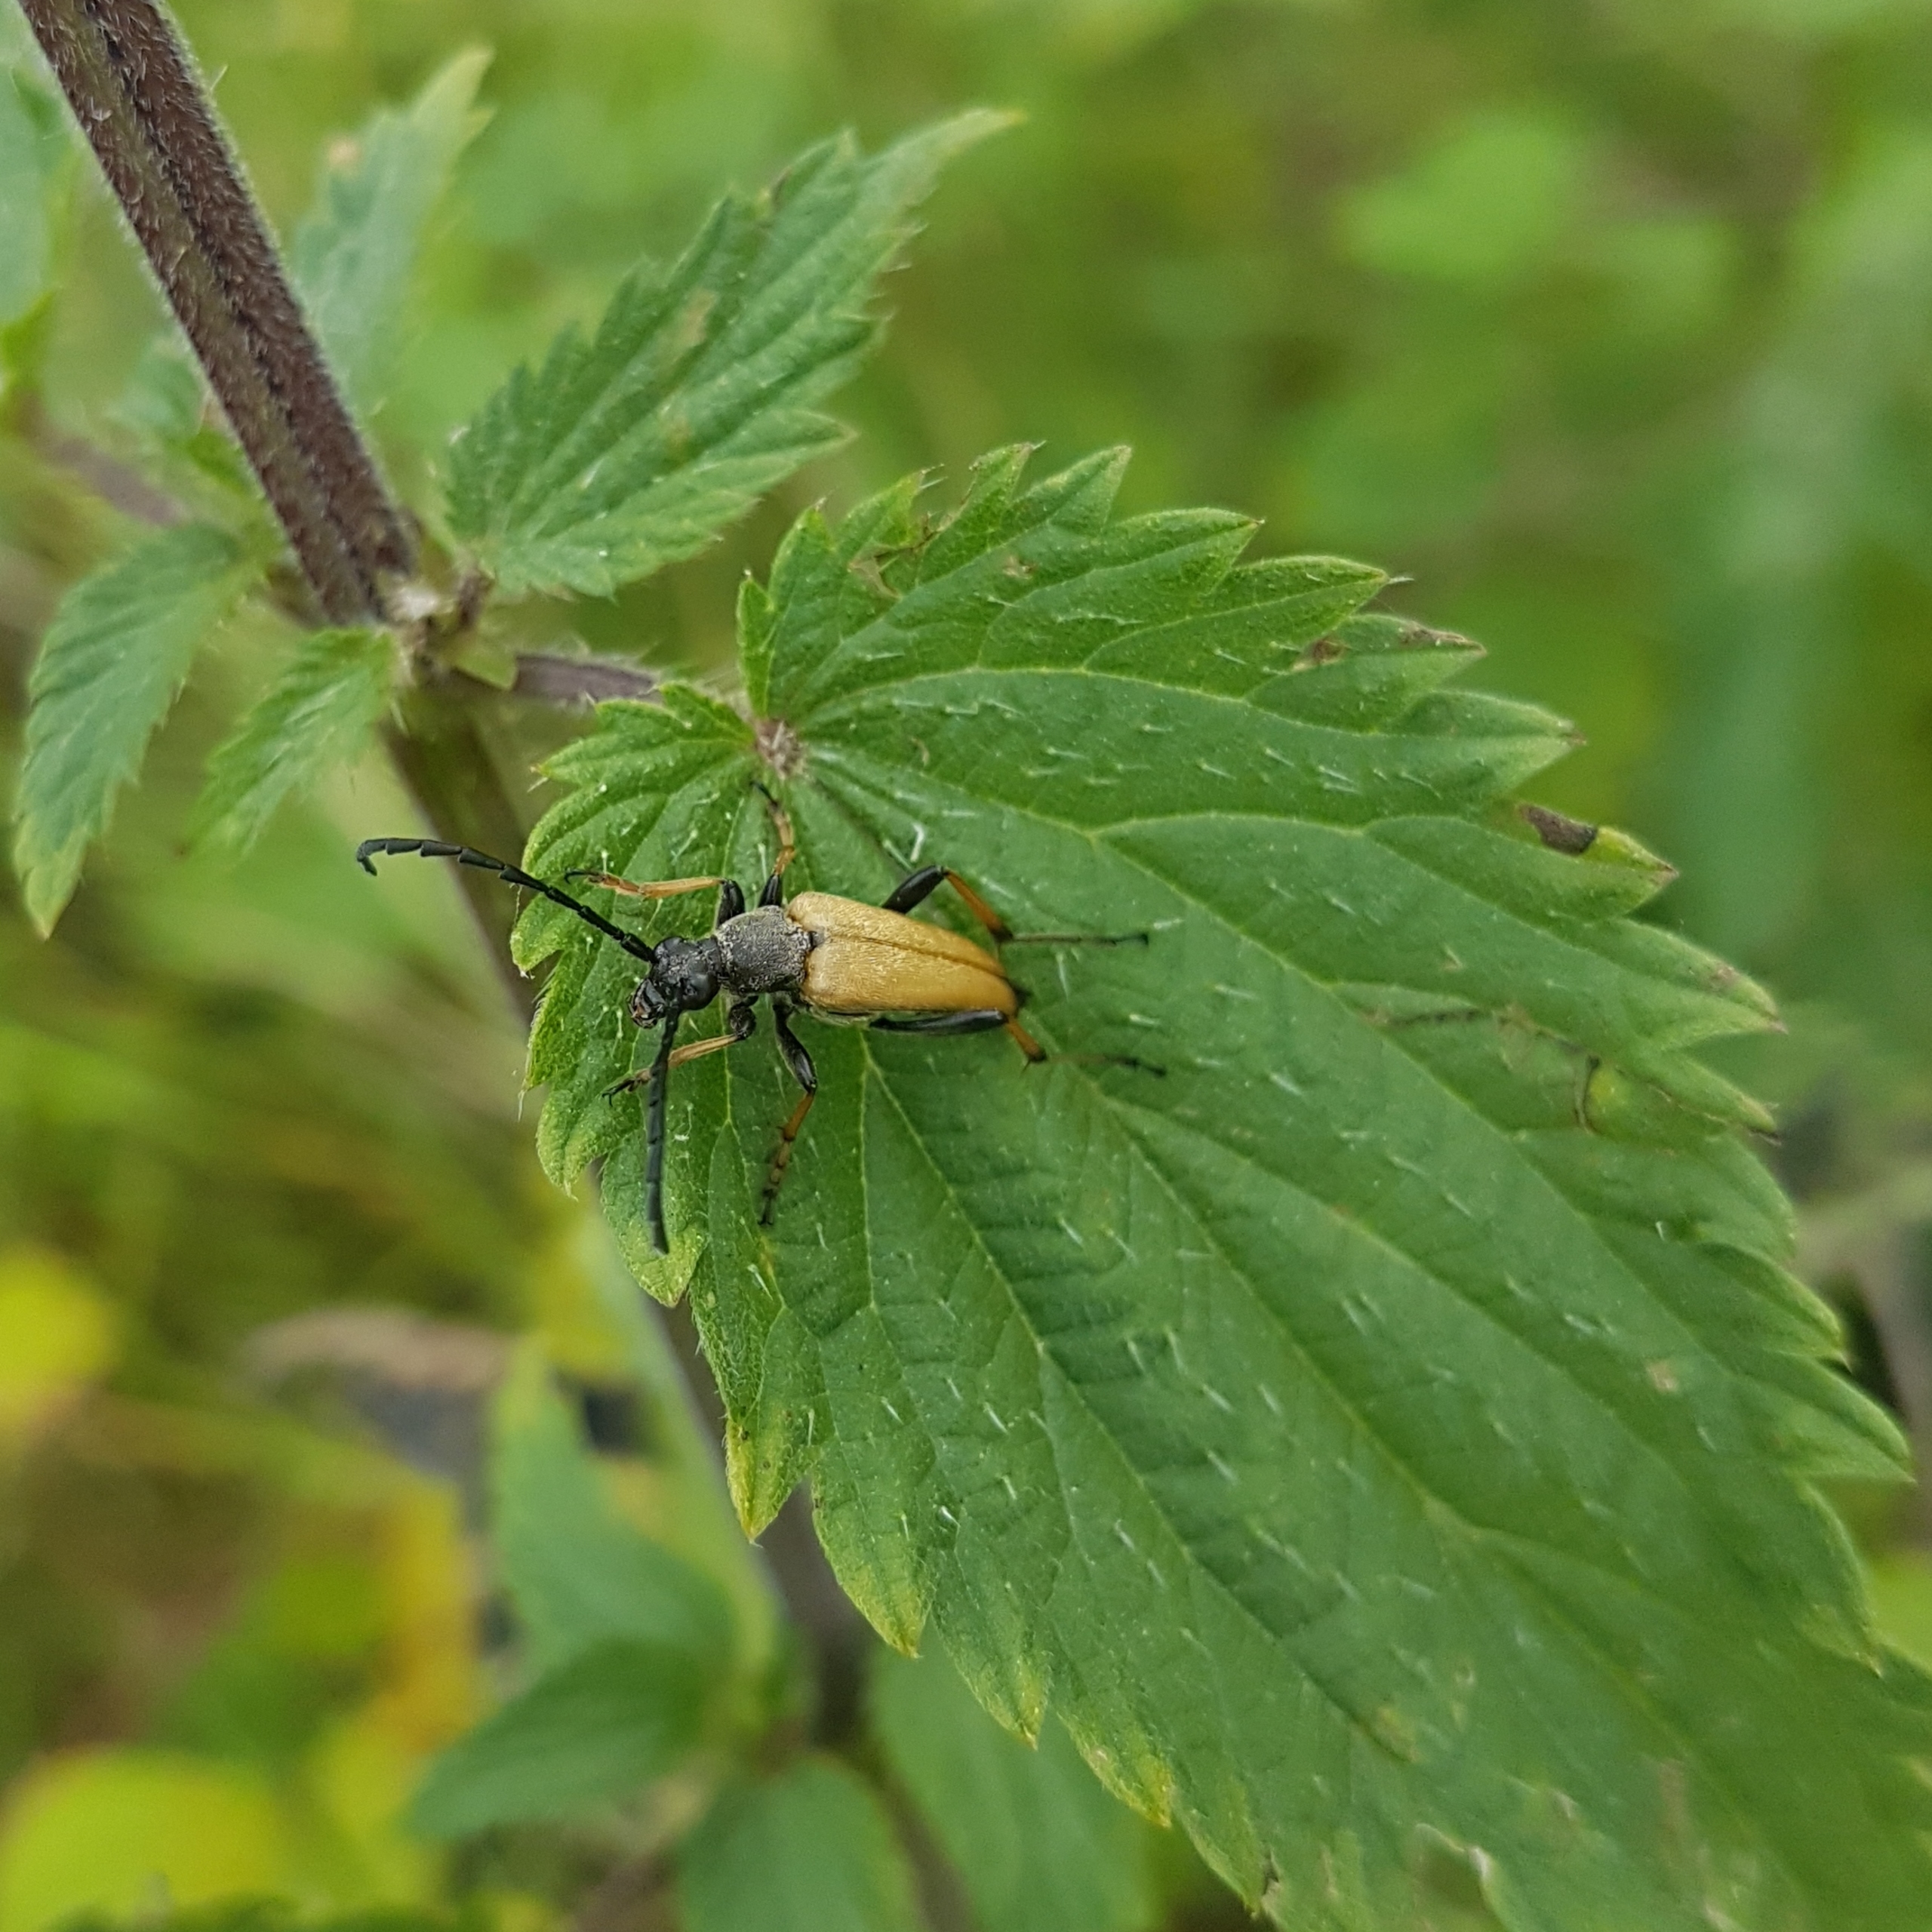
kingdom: Animalia
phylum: Arthropoda
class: Insecta
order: Coleoptera
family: Cerambycidae
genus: Stictoleptura
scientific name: Stictoleptura rubra
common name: Rød blomsterbuk
